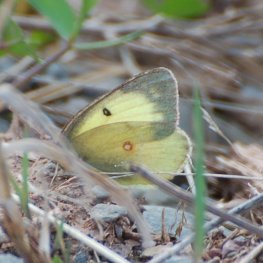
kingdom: Animalia
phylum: Arthropoda
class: Insecta
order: Lepidoptera
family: Pieridae
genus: Colias
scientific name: Colias philodice
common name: Clouded Sulphur
